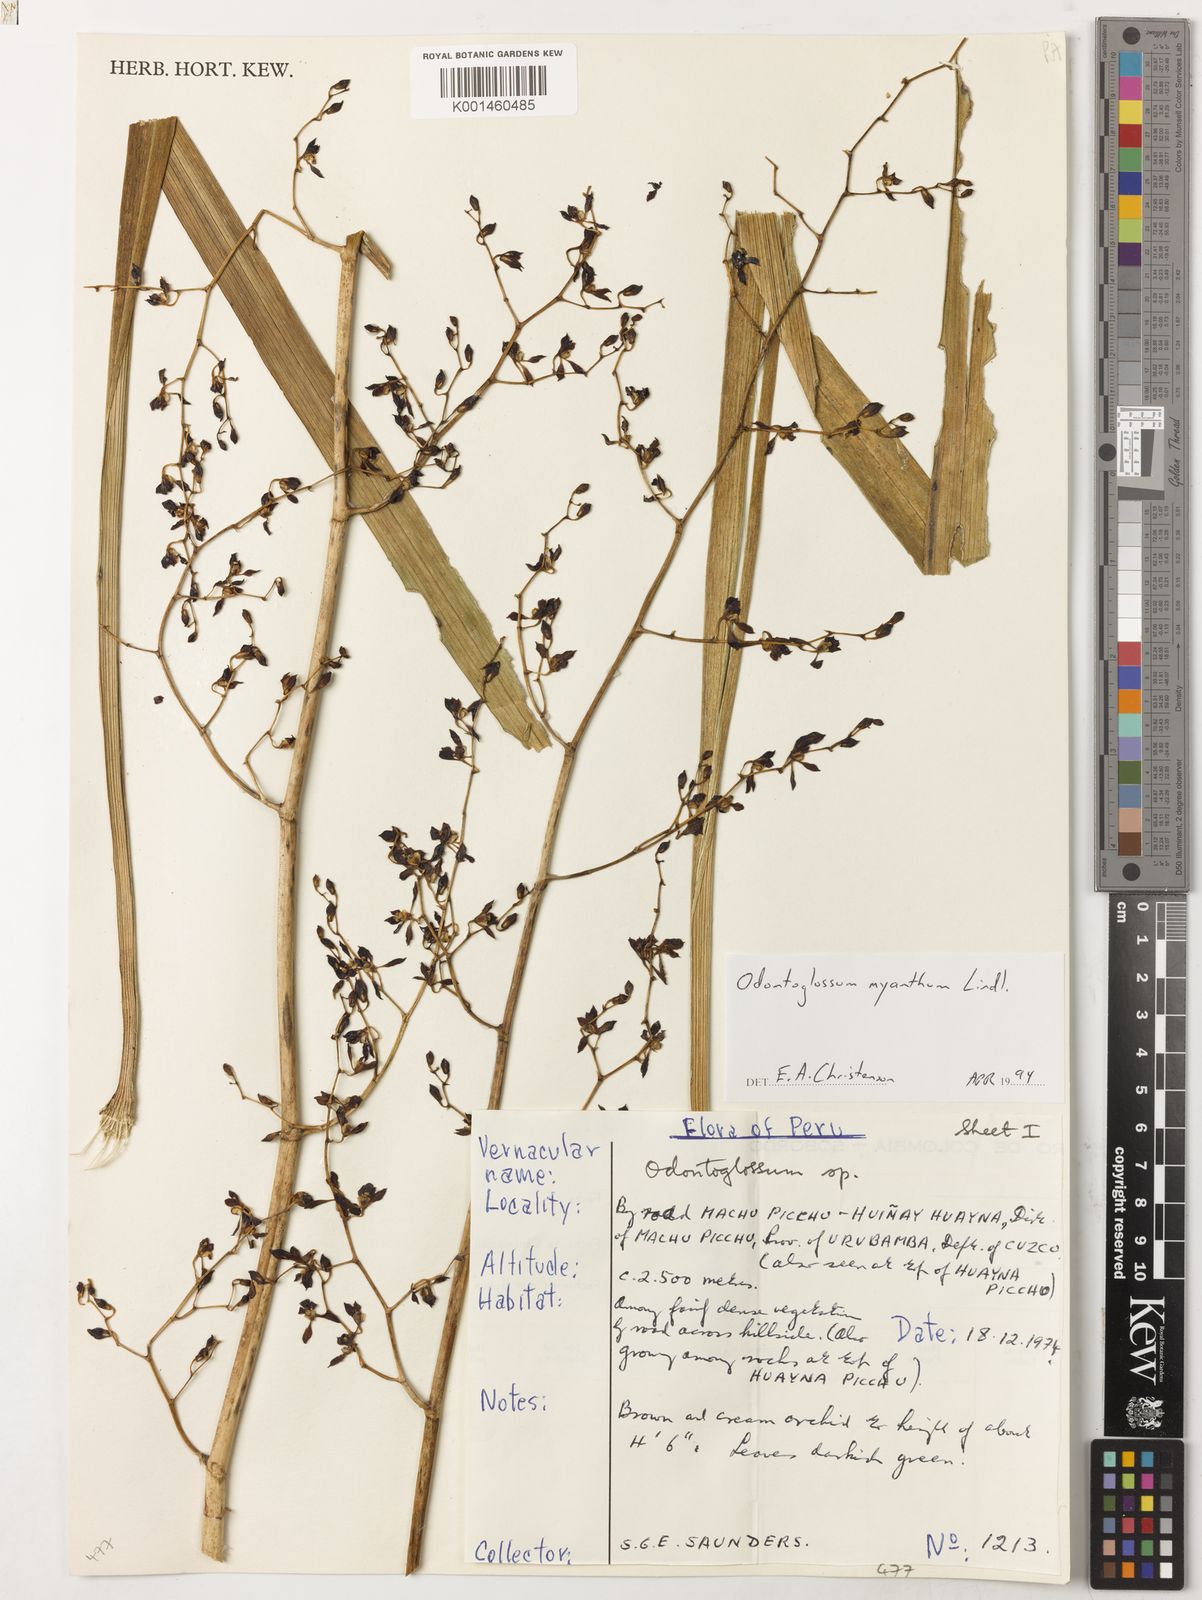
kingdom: Plantae
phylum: Tracheophyta
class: Liliopsida
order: Asparagales
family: Orchidaceae
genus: Cyrtochilum
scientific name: Cyrtochilum myanthum
